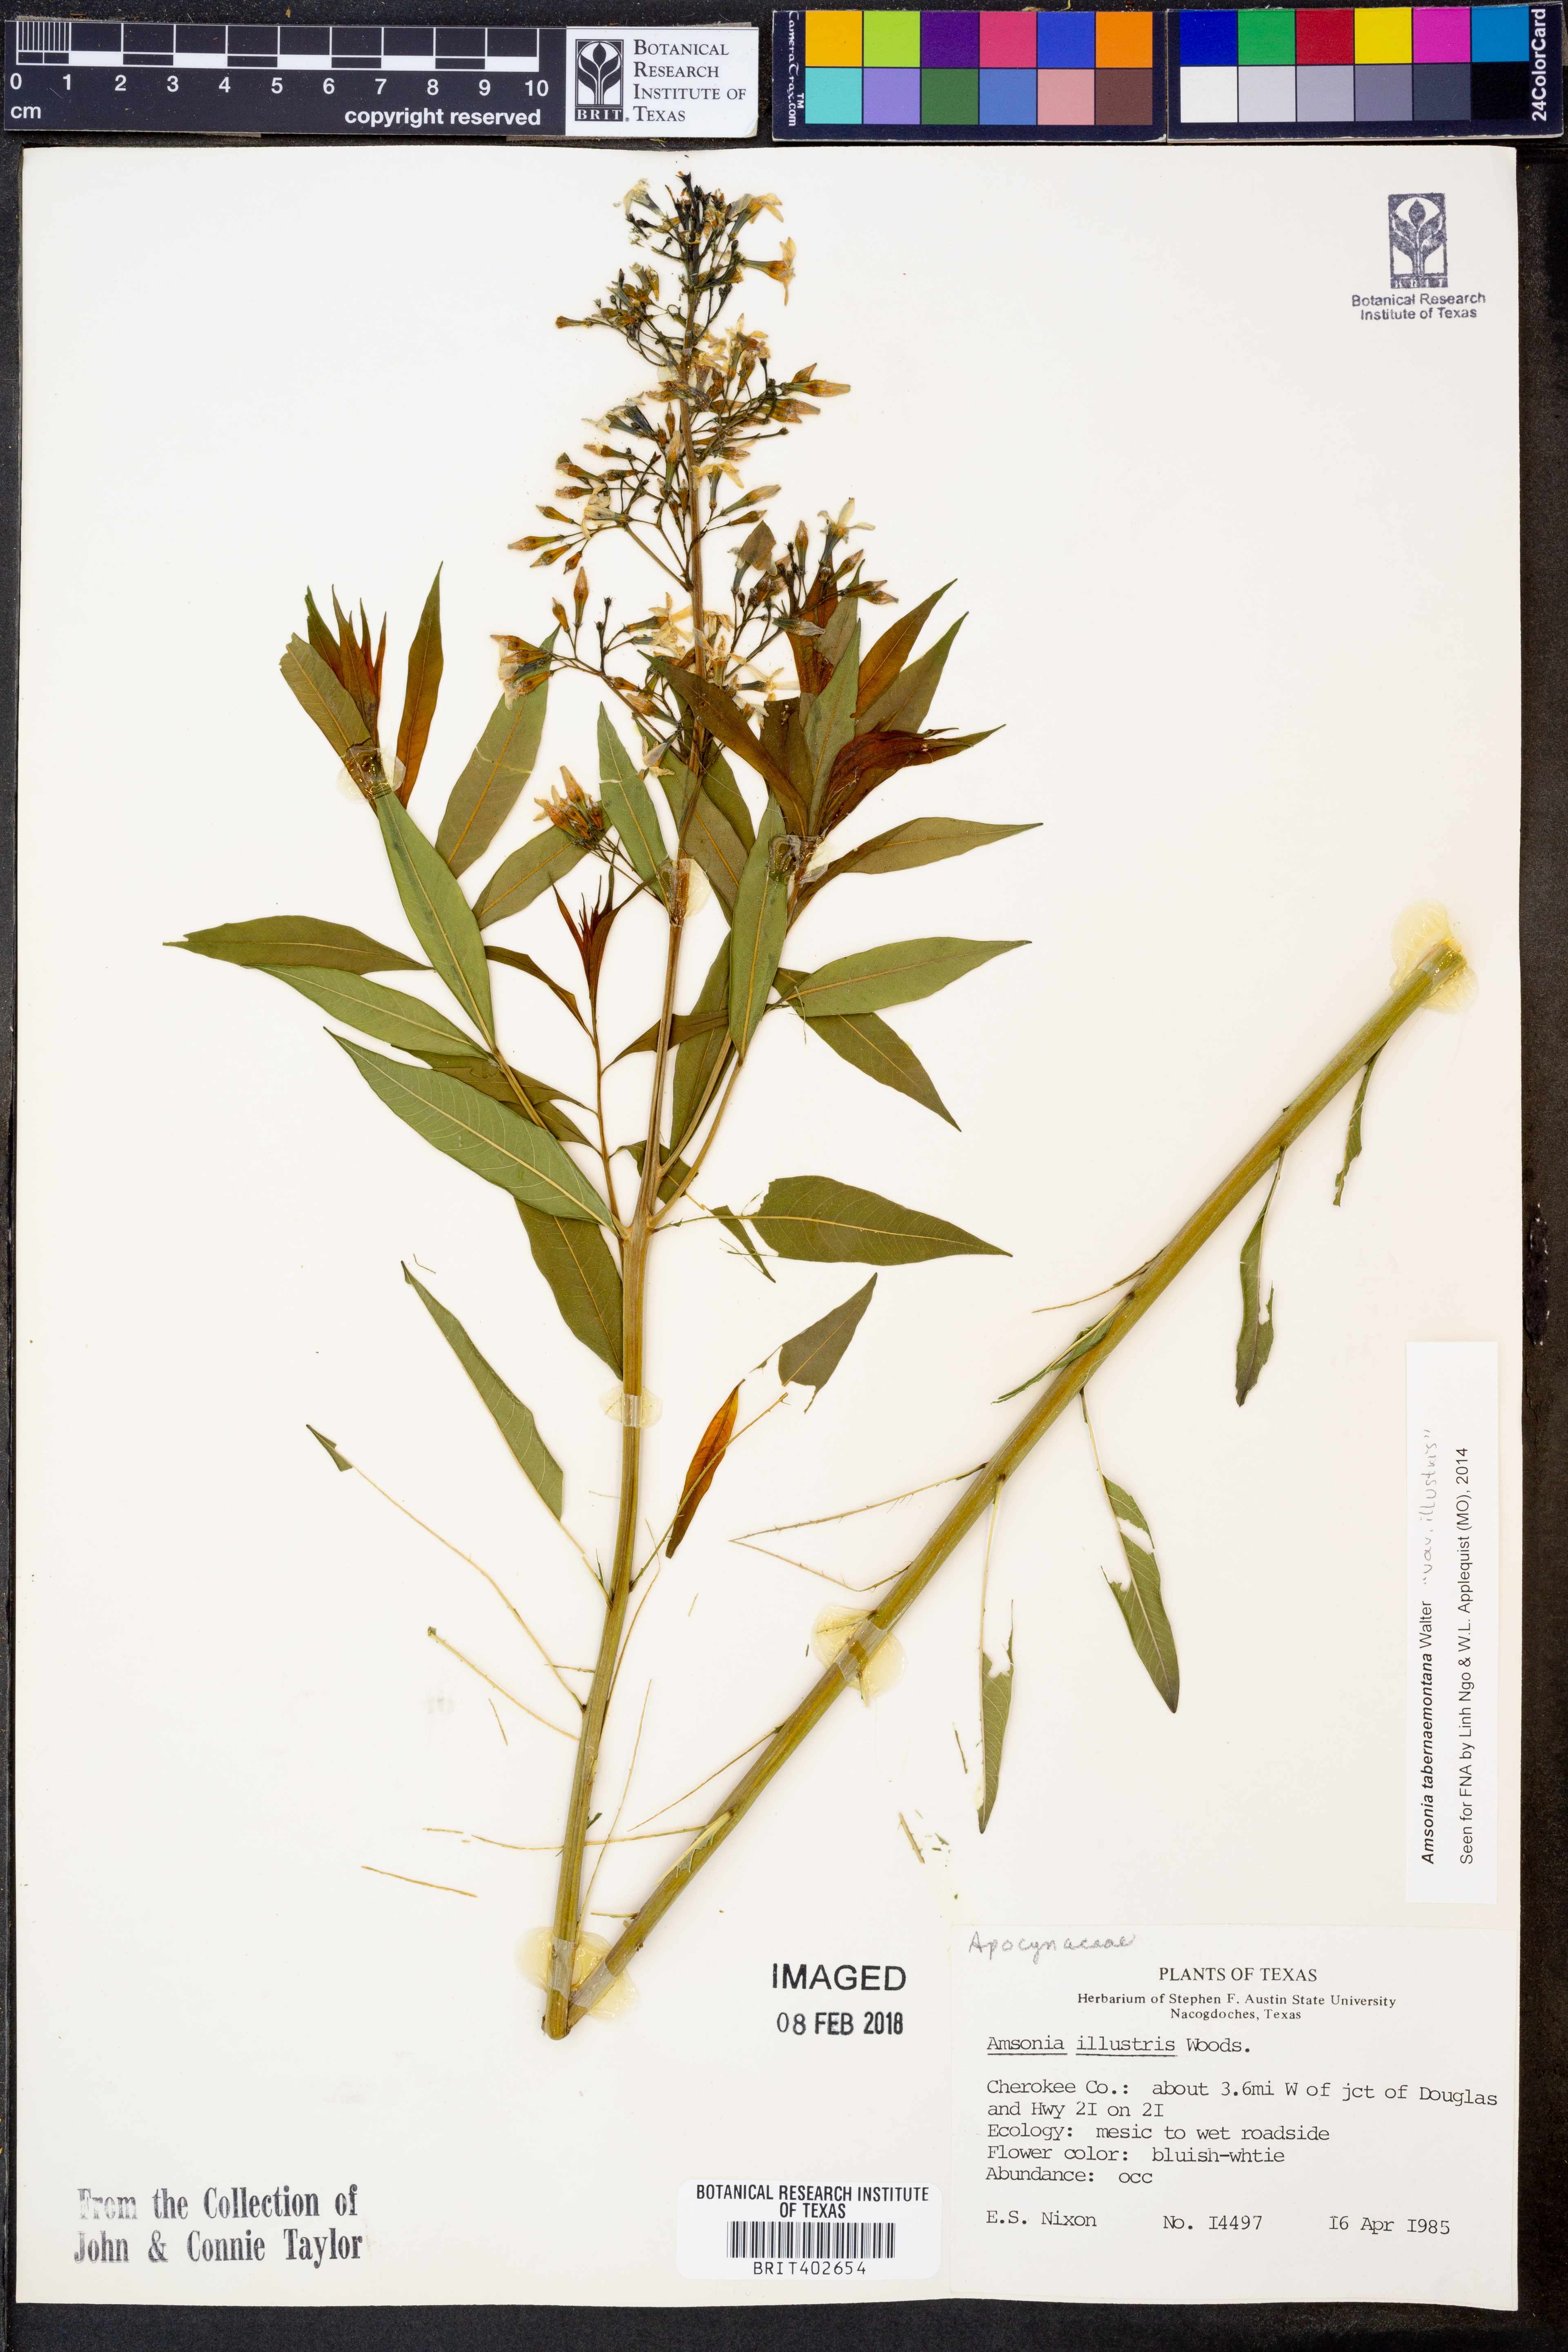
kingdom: Plantae
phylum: Tracheophyta
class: Magnoliopsida
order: Gentianales
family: Apocynaceae
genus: Amsonia
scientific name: Amsonia tabernaemontana
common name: Texas-star
